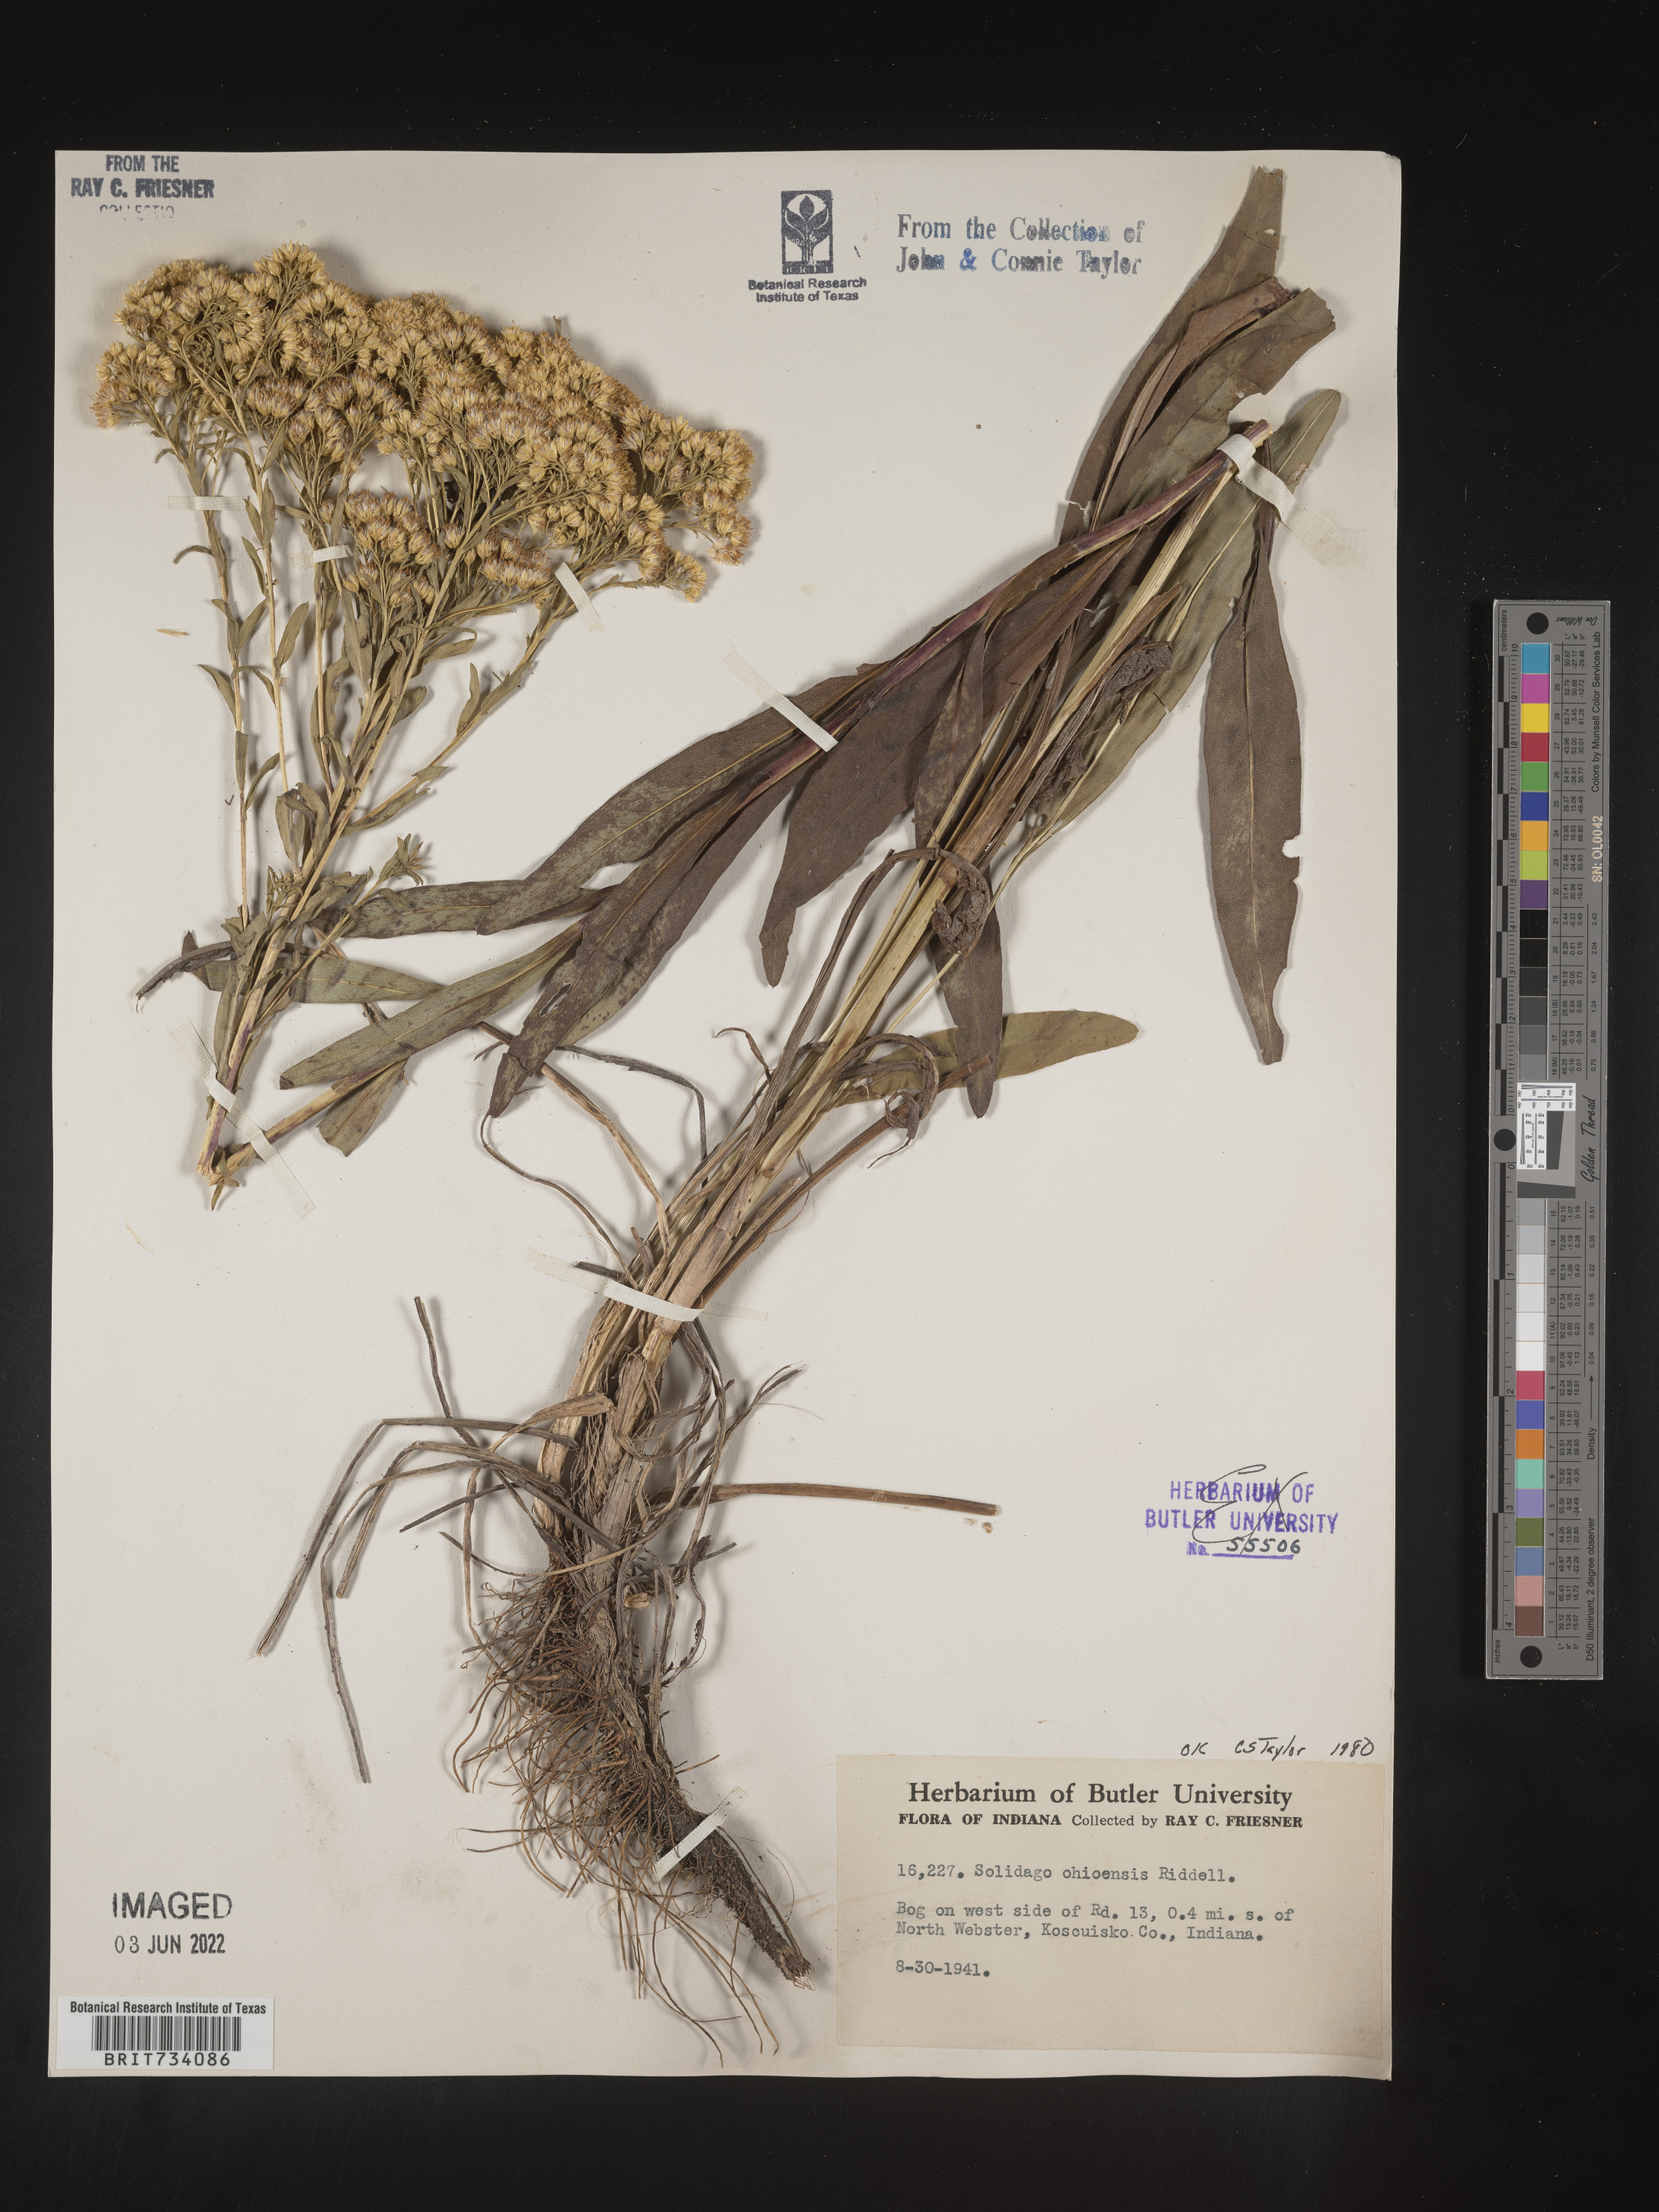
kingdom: Plantae
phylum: Tracheophyta
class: Magnoliopsida
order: Asterales
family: Asteraceae
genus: Solidago
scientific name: Solidago nitida
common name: Shiny goldenrod
